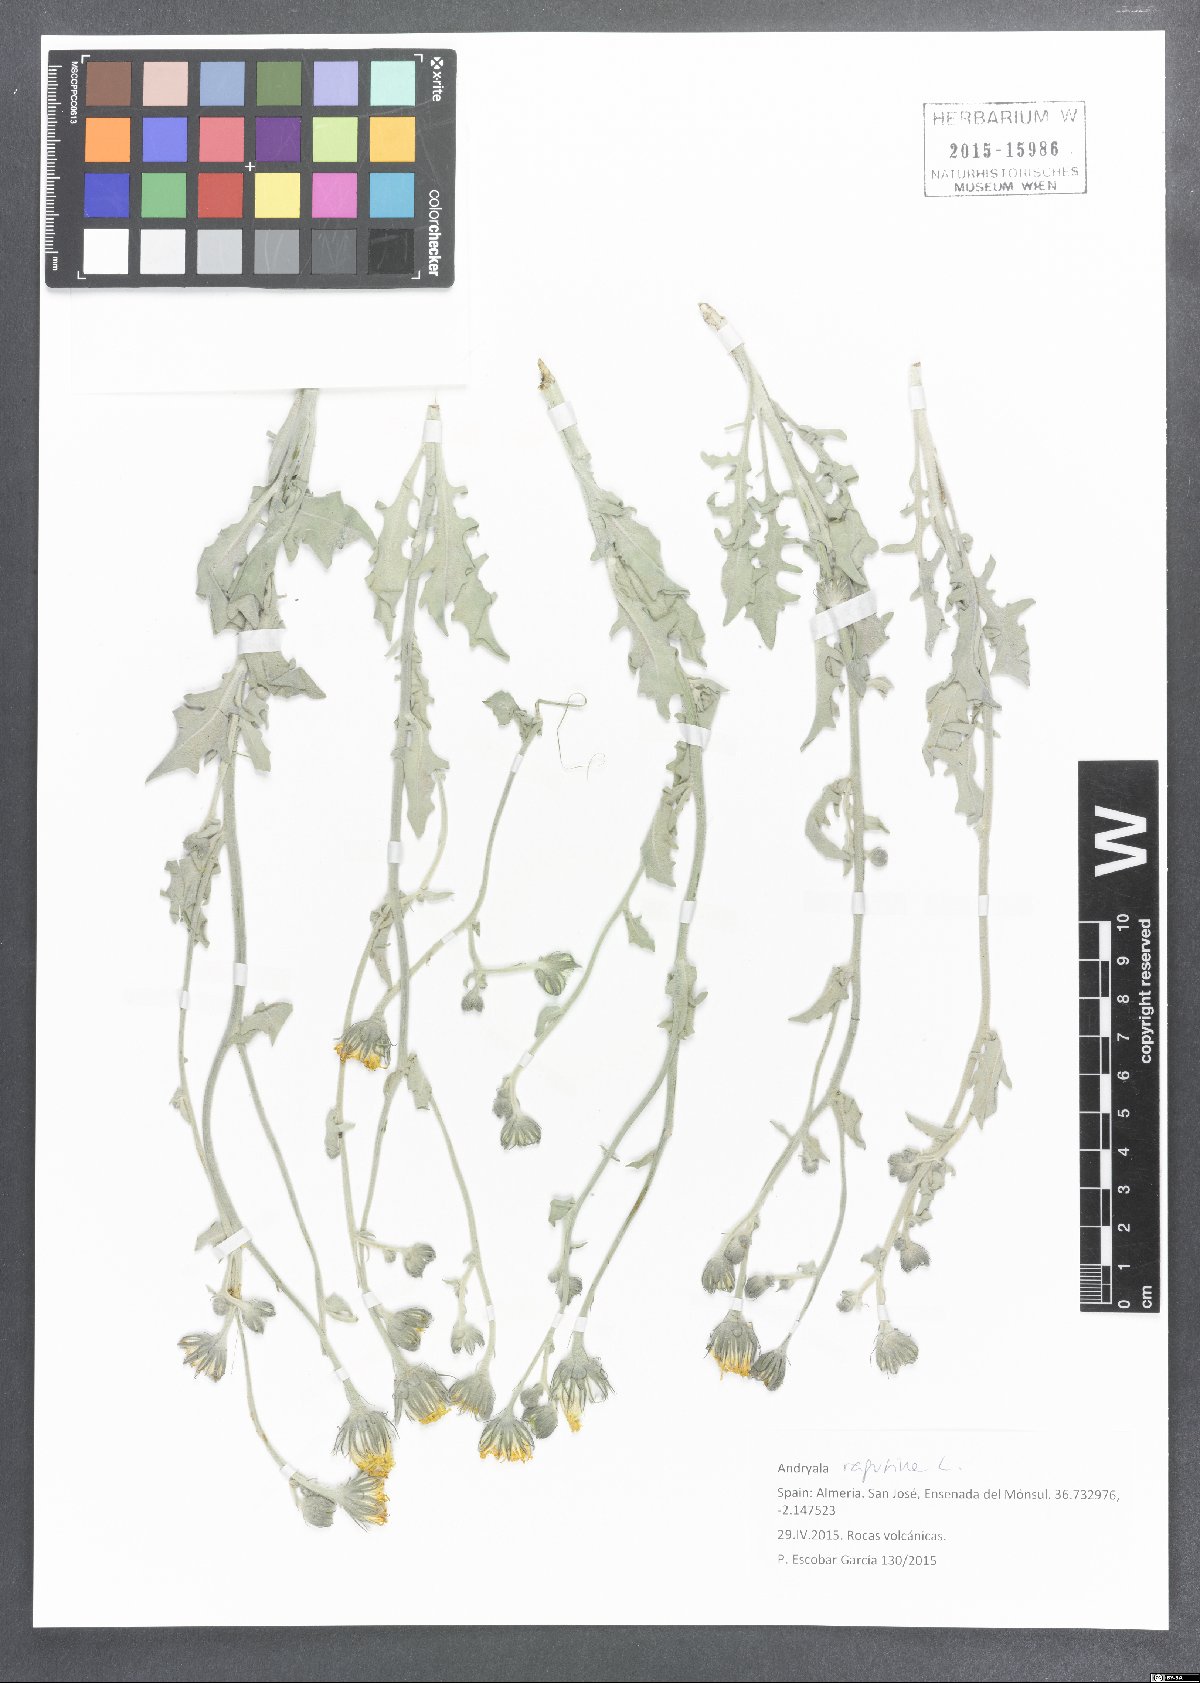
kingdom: Plantae
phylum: Tracheophyta
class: Magnoliopsida
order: Asterales
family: Asteraceae
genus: Andryala
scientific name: Andryala ragusina
